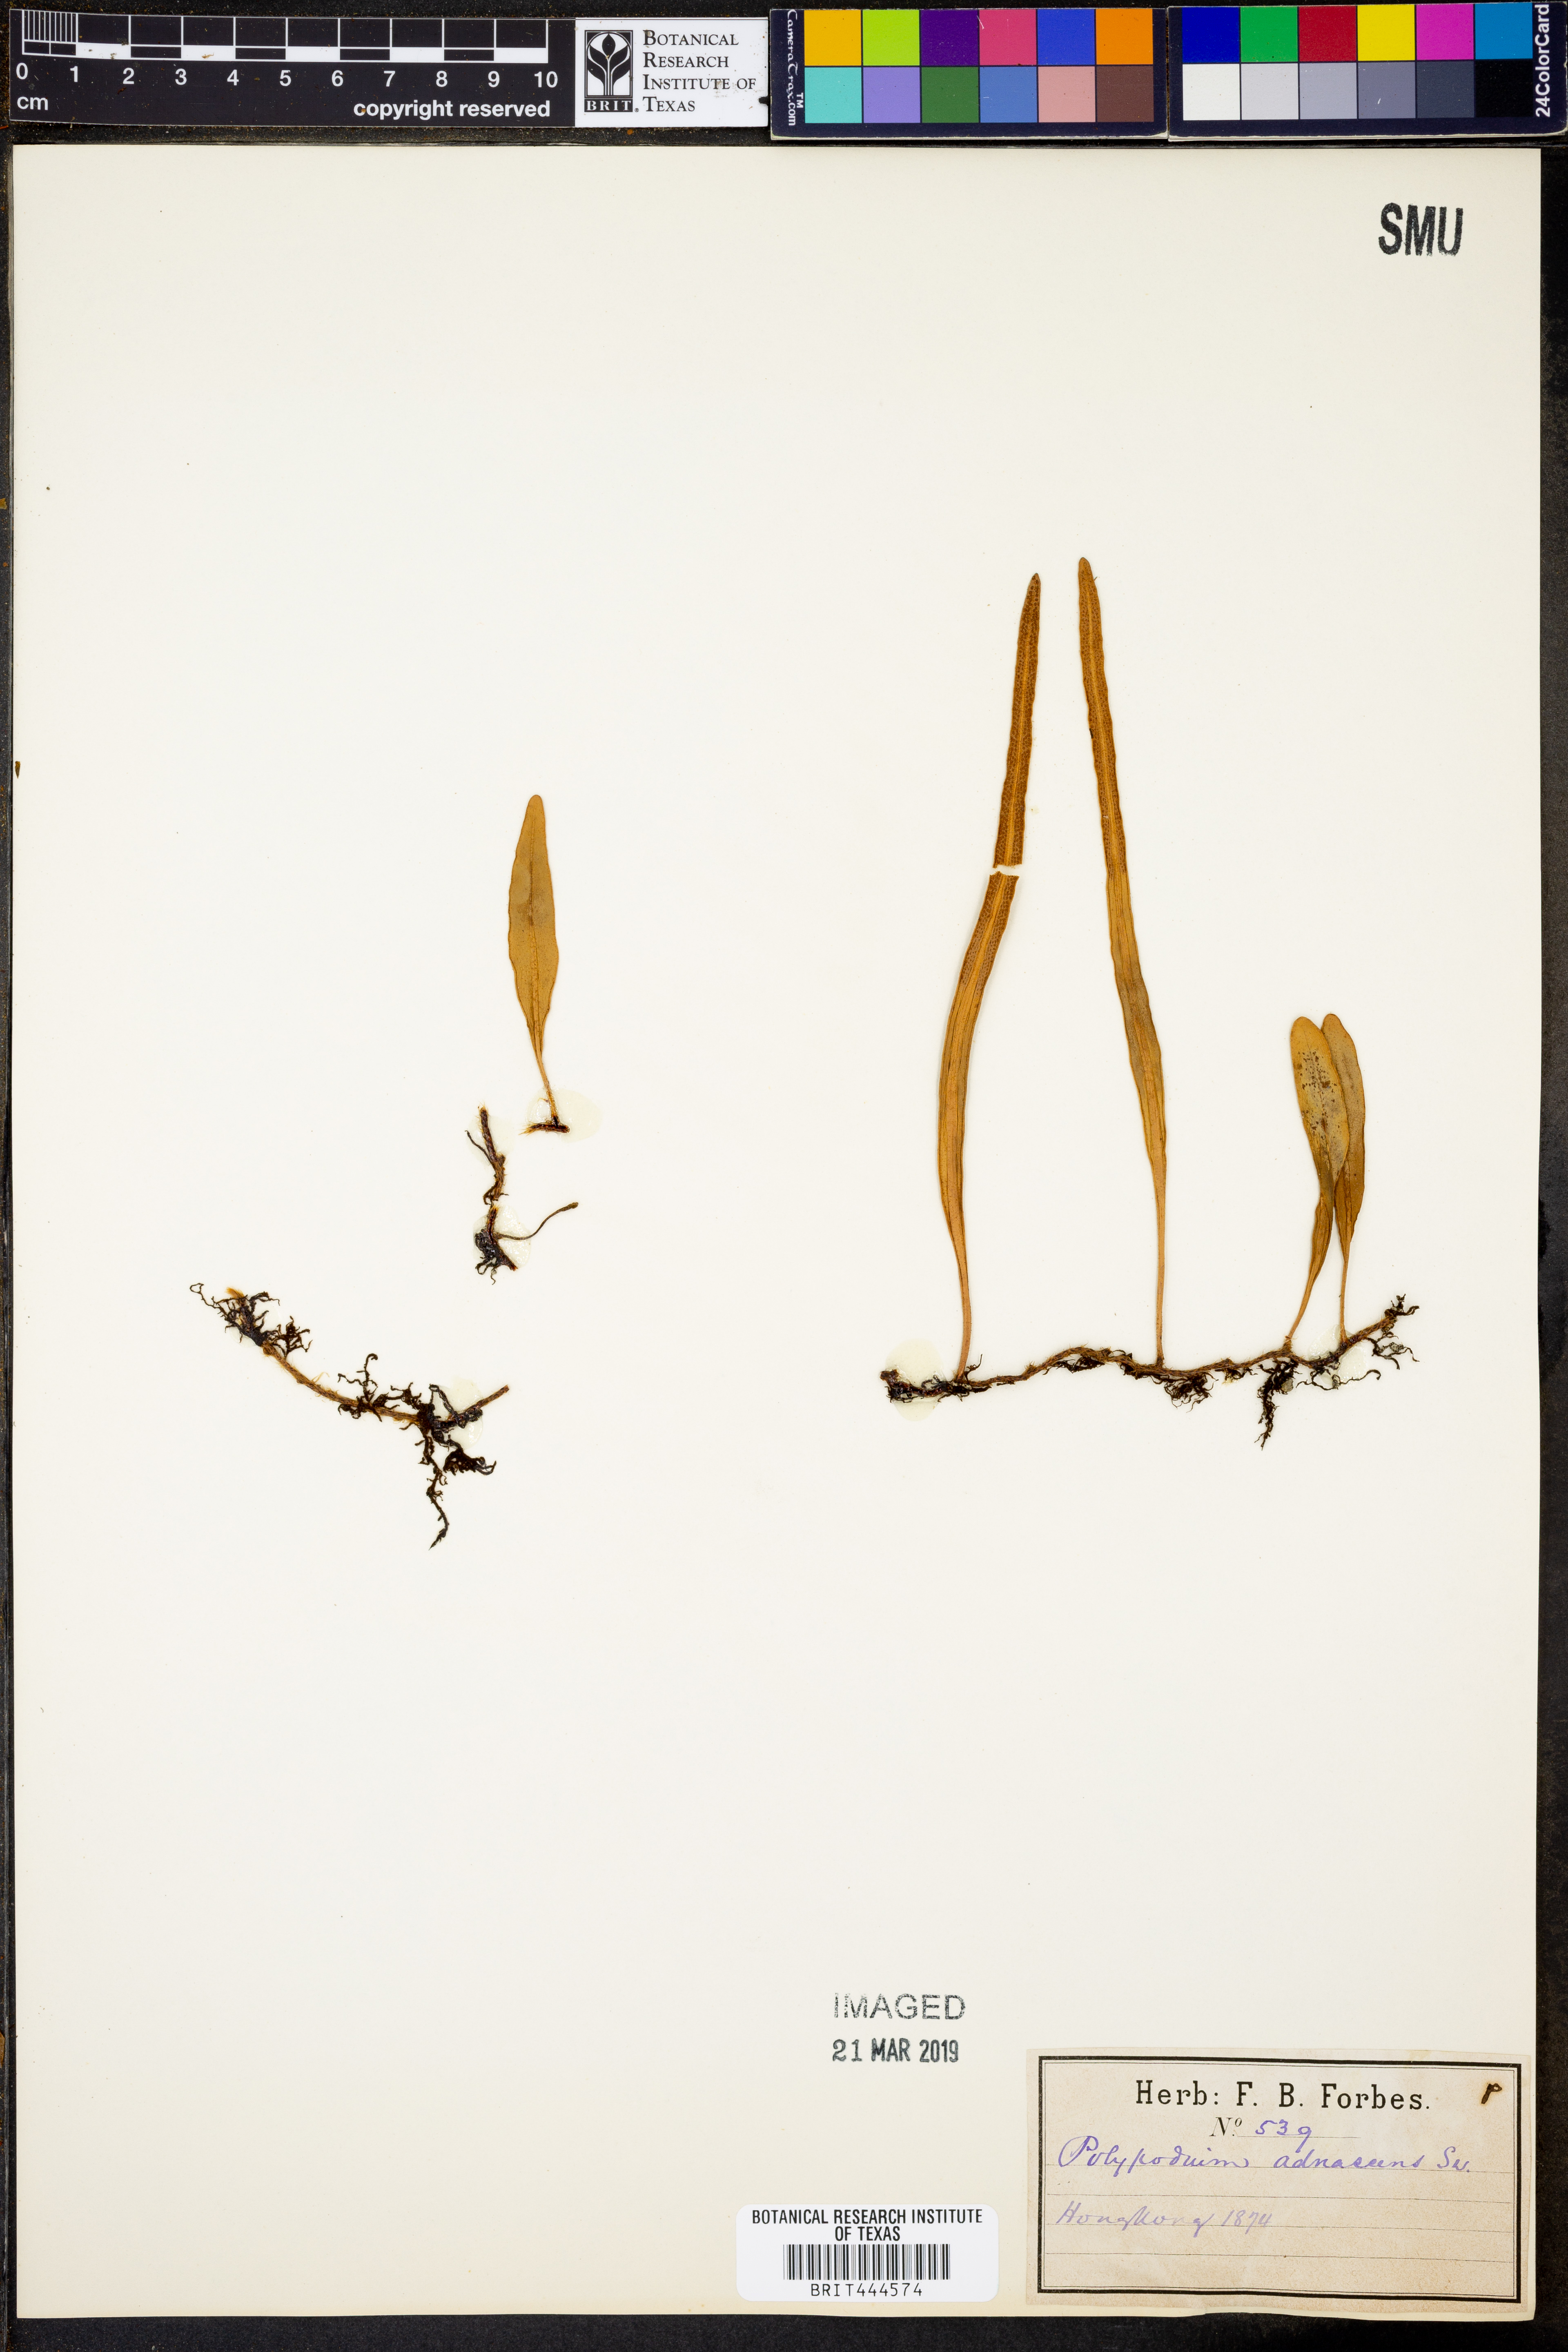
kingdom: Plantae
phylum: Tracheophyta
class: Polypodiopsida
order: Polypodiales
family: Polypodiaceae
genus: Serpocaulon
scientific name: Serpocaulon adnatum
